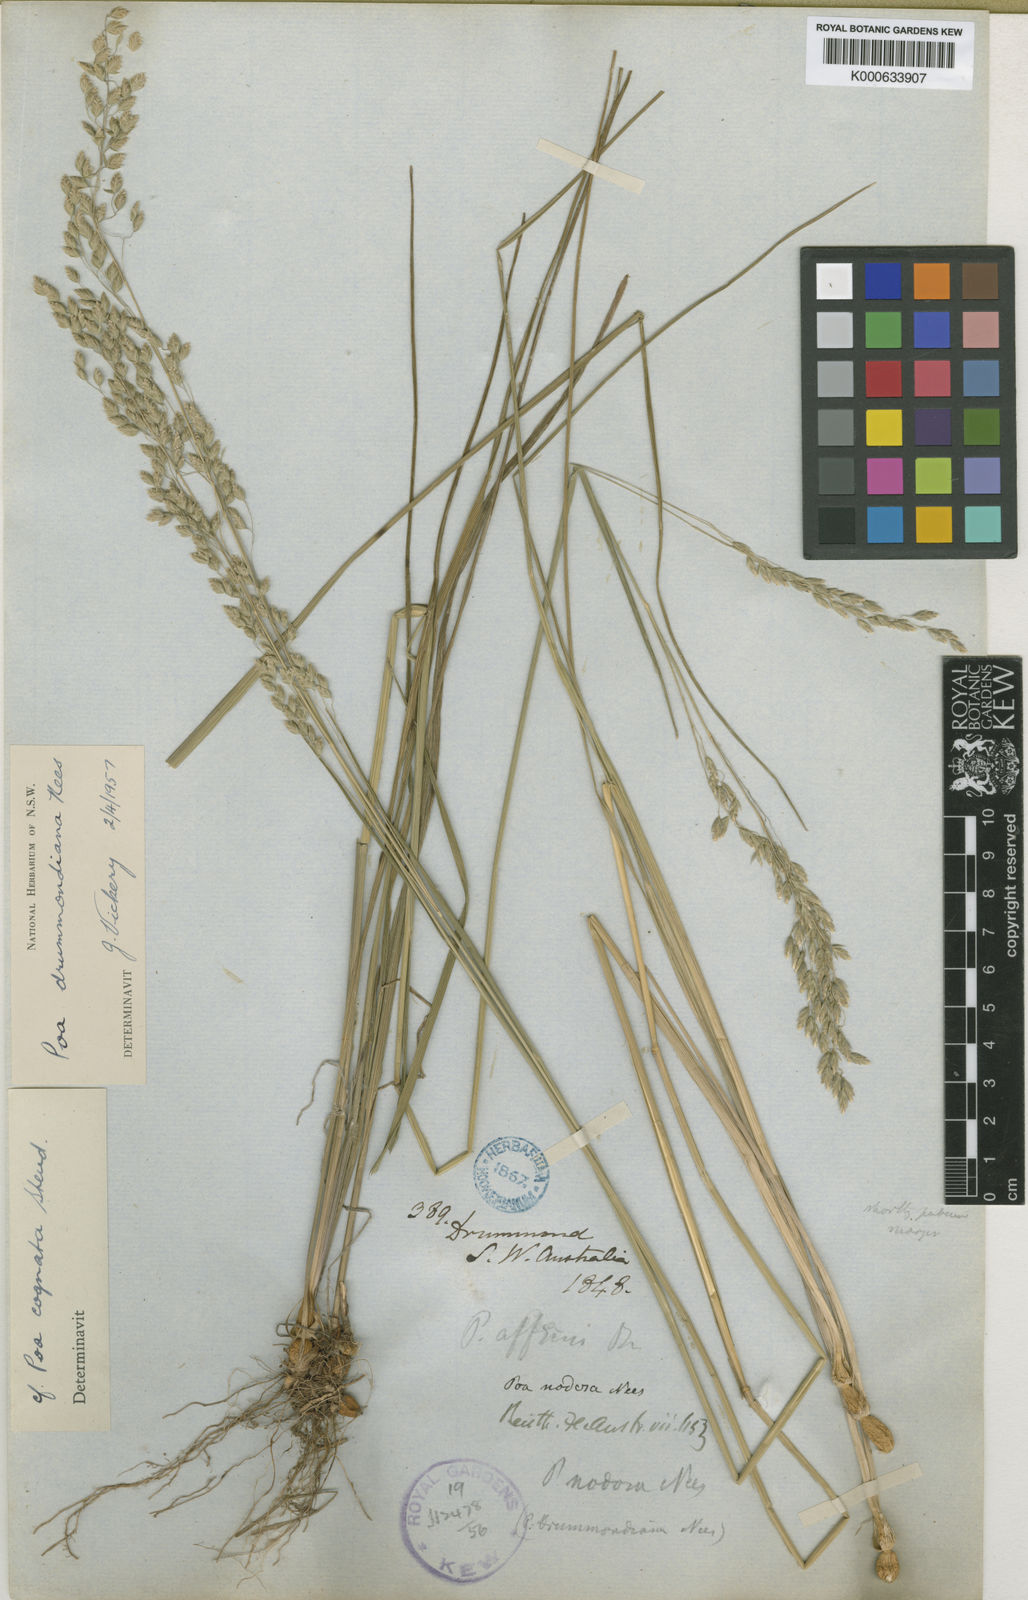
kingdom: Plantae
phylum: Tracheophyta
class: Liliopsida
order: Poales
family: Poaceae
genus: Poa
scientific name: Poa drummondiana
